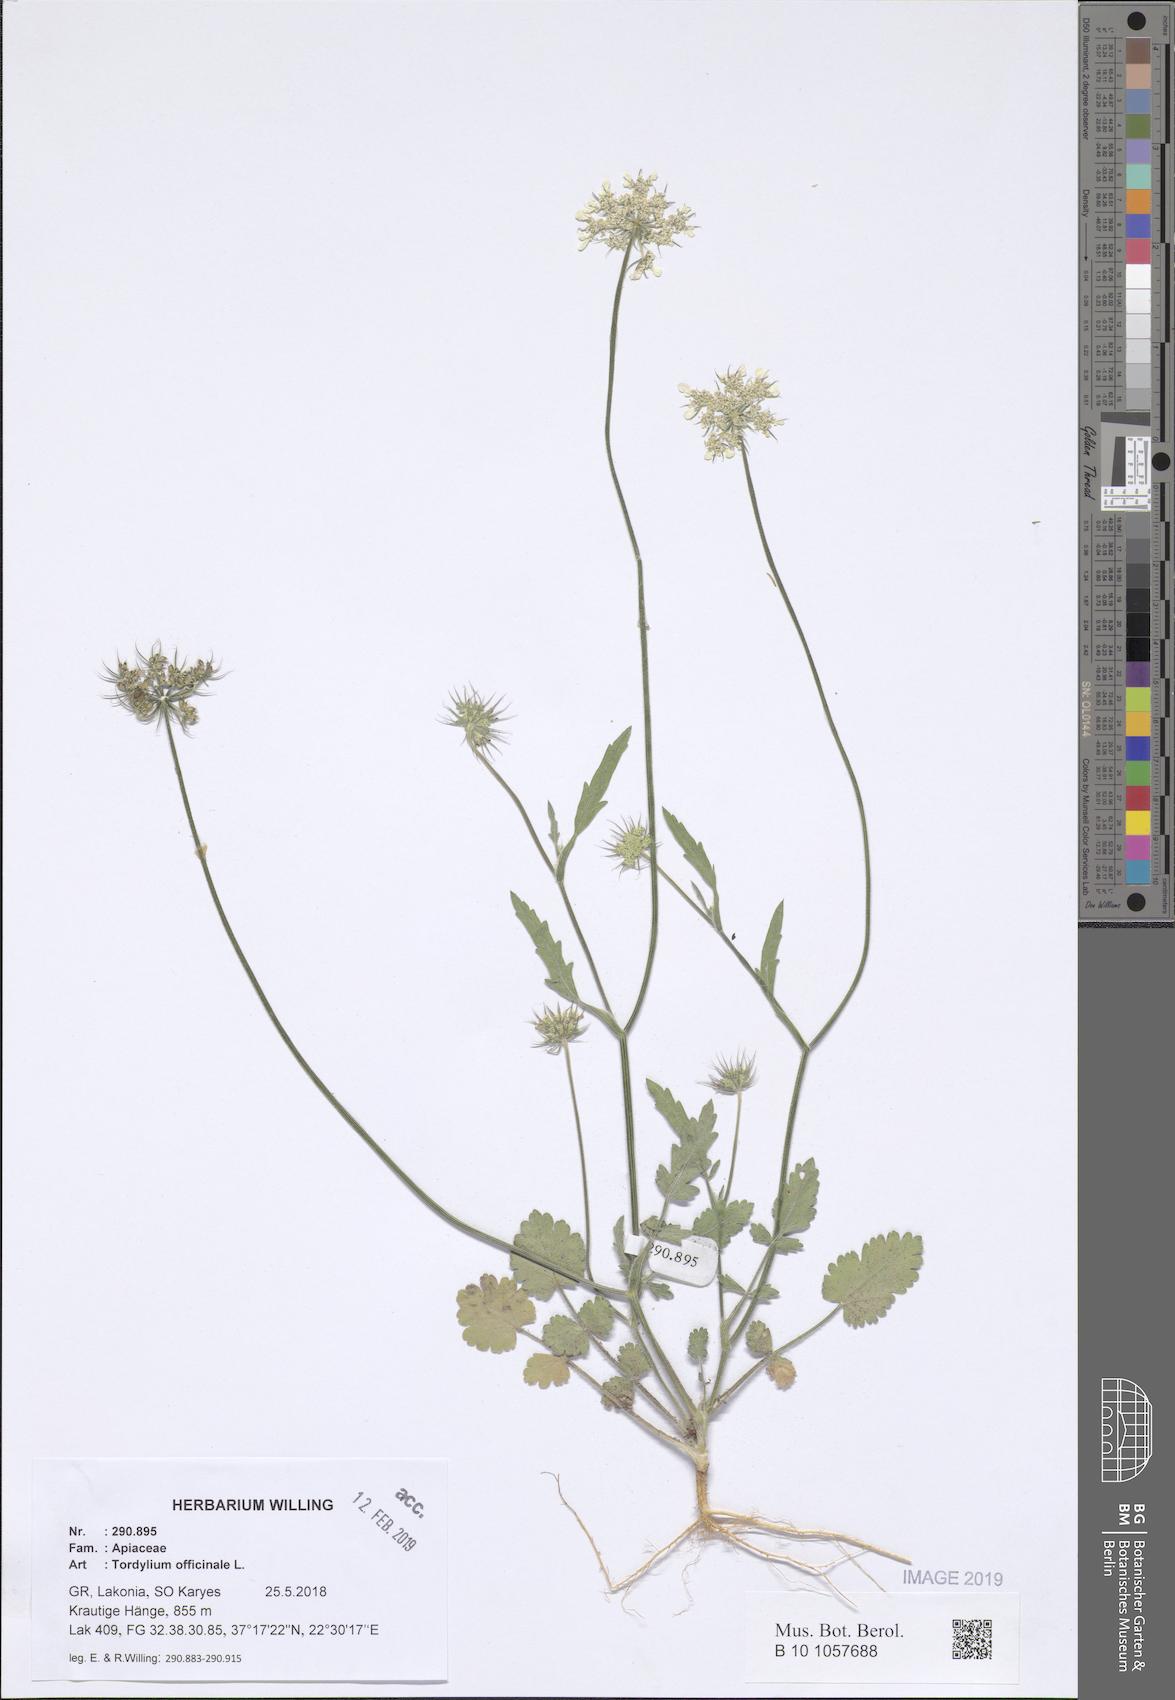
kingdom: Plantae
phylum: Tracheophyta
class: Magnoliopsida
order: Apiales
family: Apiaceae
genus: Tordylium
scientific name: Tordylium officinale
